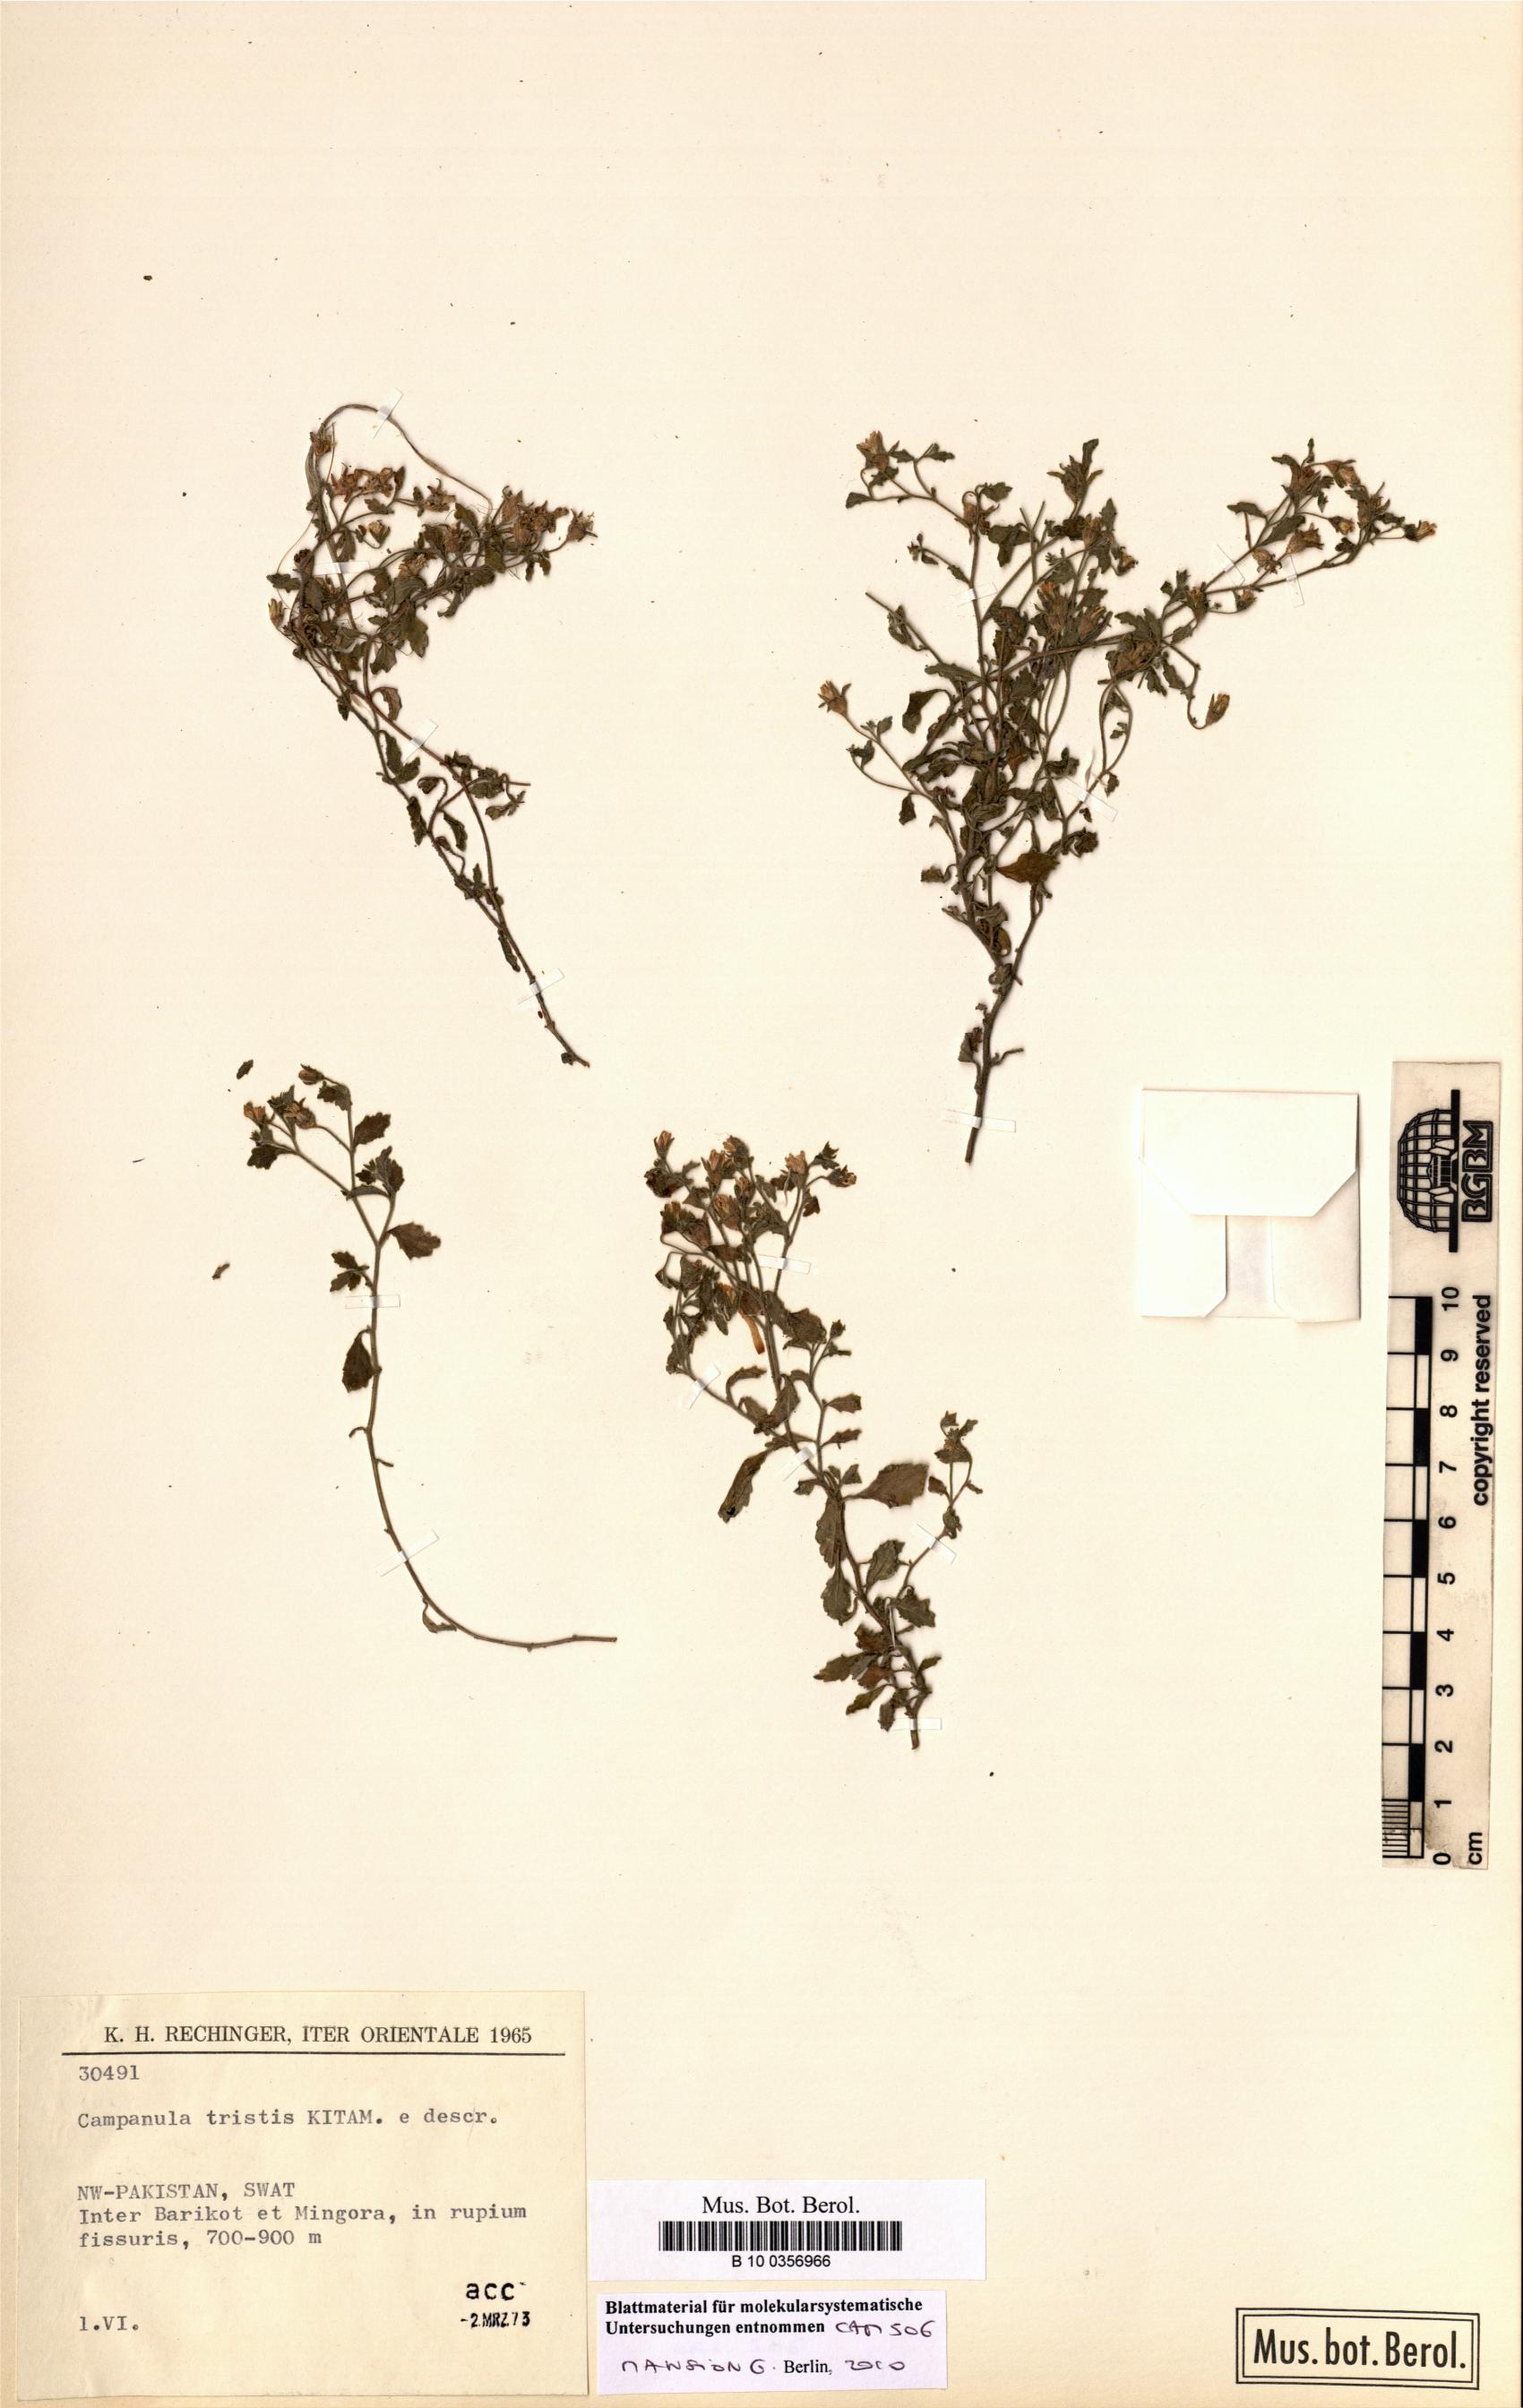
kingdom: Plantae
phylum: Tracheophyta
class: Magnoliopsida
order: Asterales
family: Campanulaceae
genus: Campanula
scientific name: Campanula tristis
